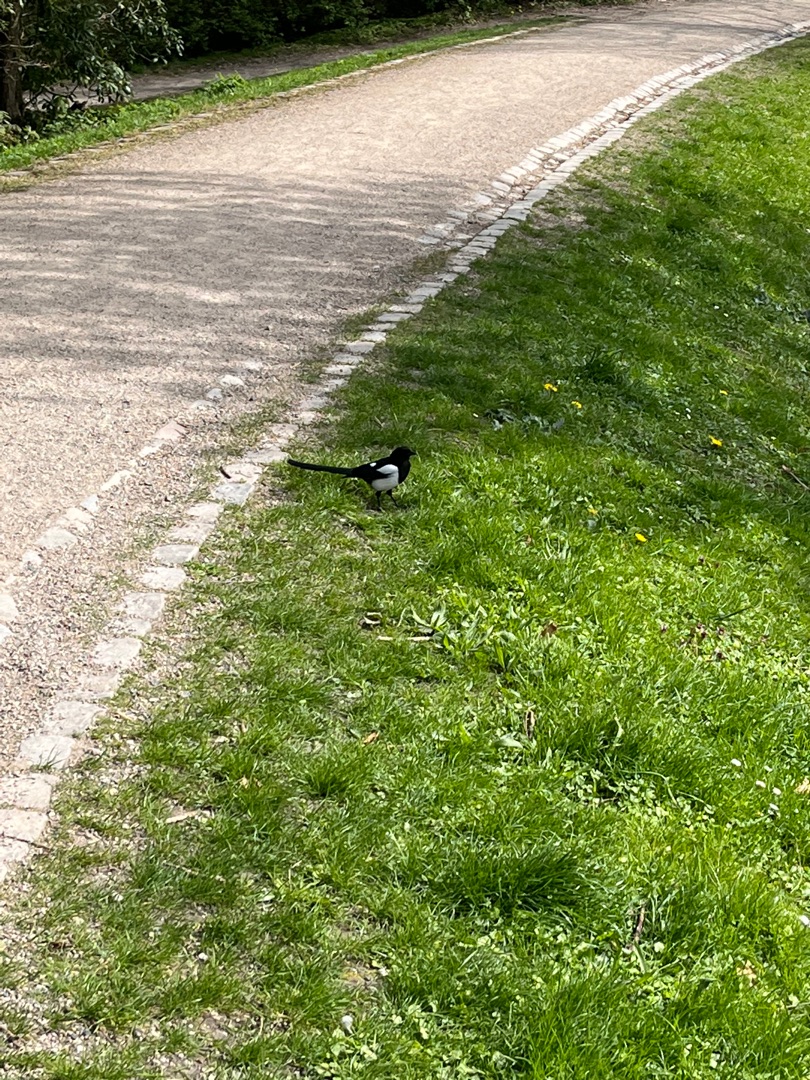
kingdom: Animalia
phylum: Chordata
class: Aves
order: Passeriformes
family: Corvidae
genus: Pica
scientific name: Pica pica
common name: Husskade
